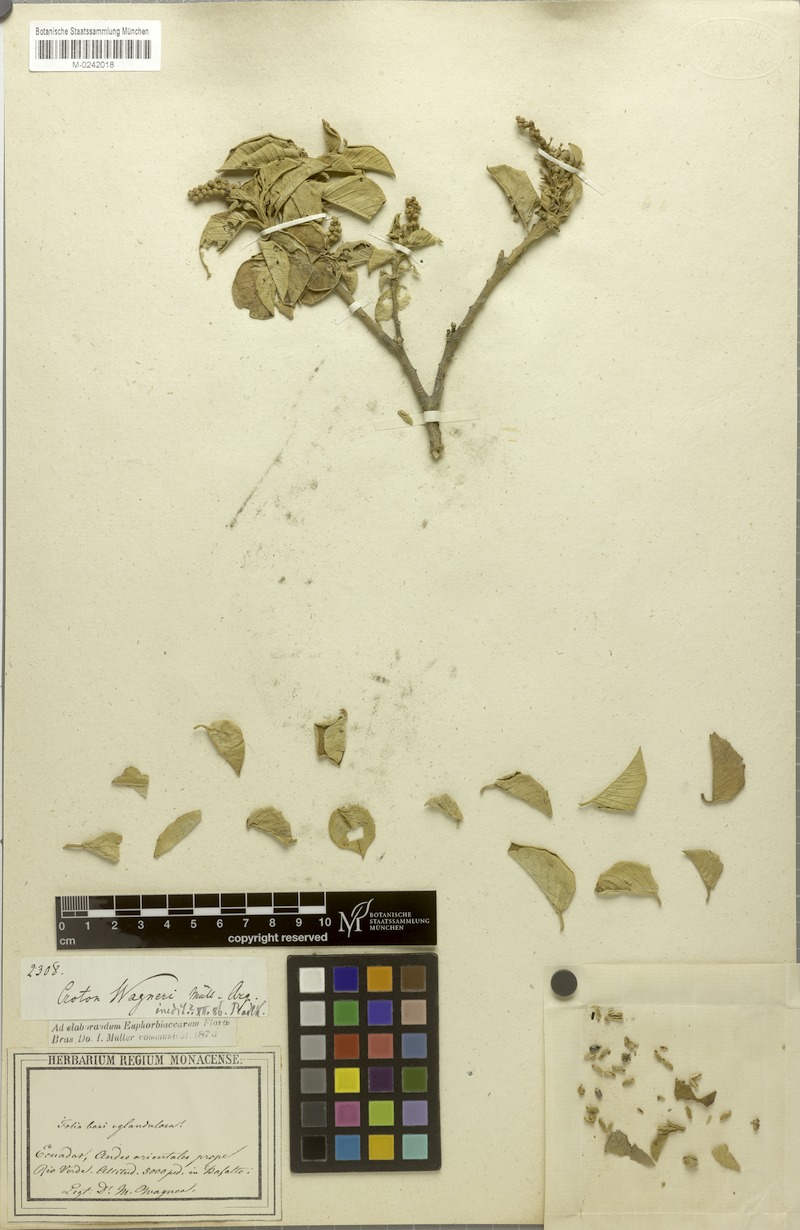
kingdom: Plantae
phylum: Tracheophyta
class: Magnoliopsida
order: Malpighiales
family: Euphorbiaceae
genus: Croton
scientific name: Croton wagneri
